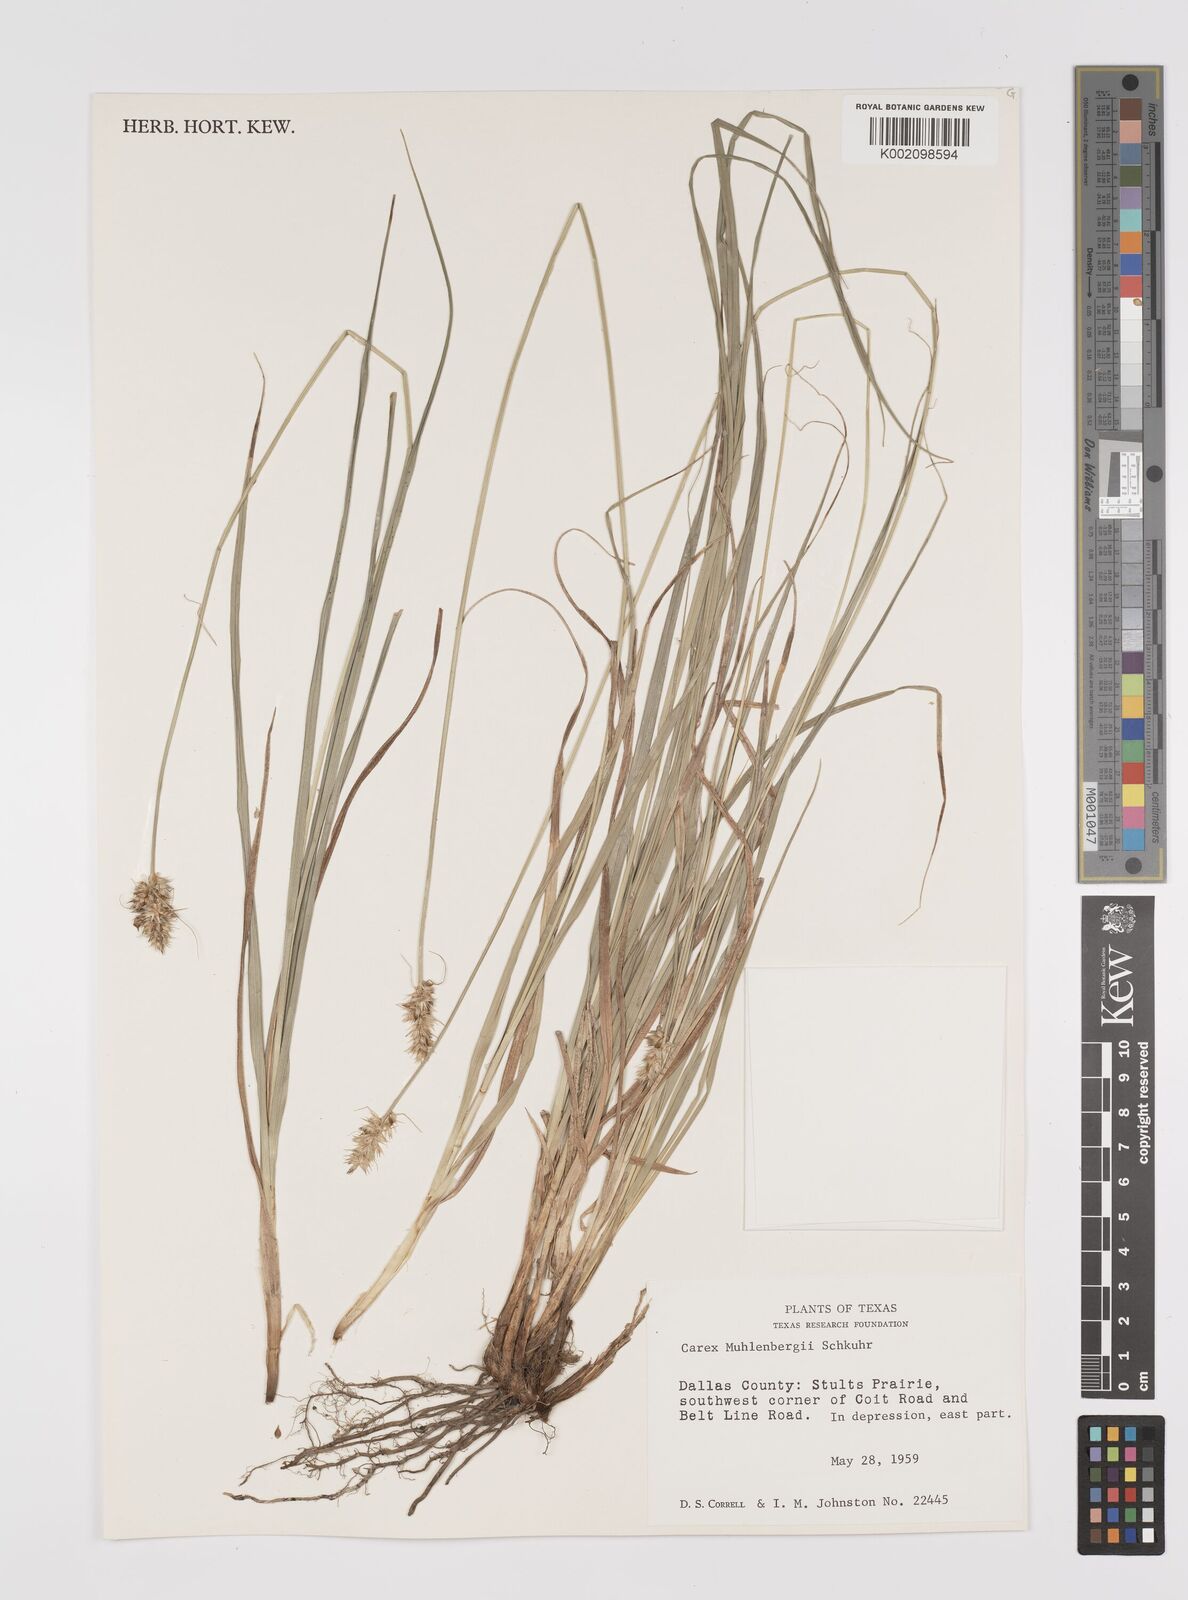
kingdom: Plantae
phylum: Tracheophyta
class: Liliopsida
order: Poales
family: Cyperaceae
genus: Carex
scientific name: Carex vulpinoidea
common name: American fox-sedge
